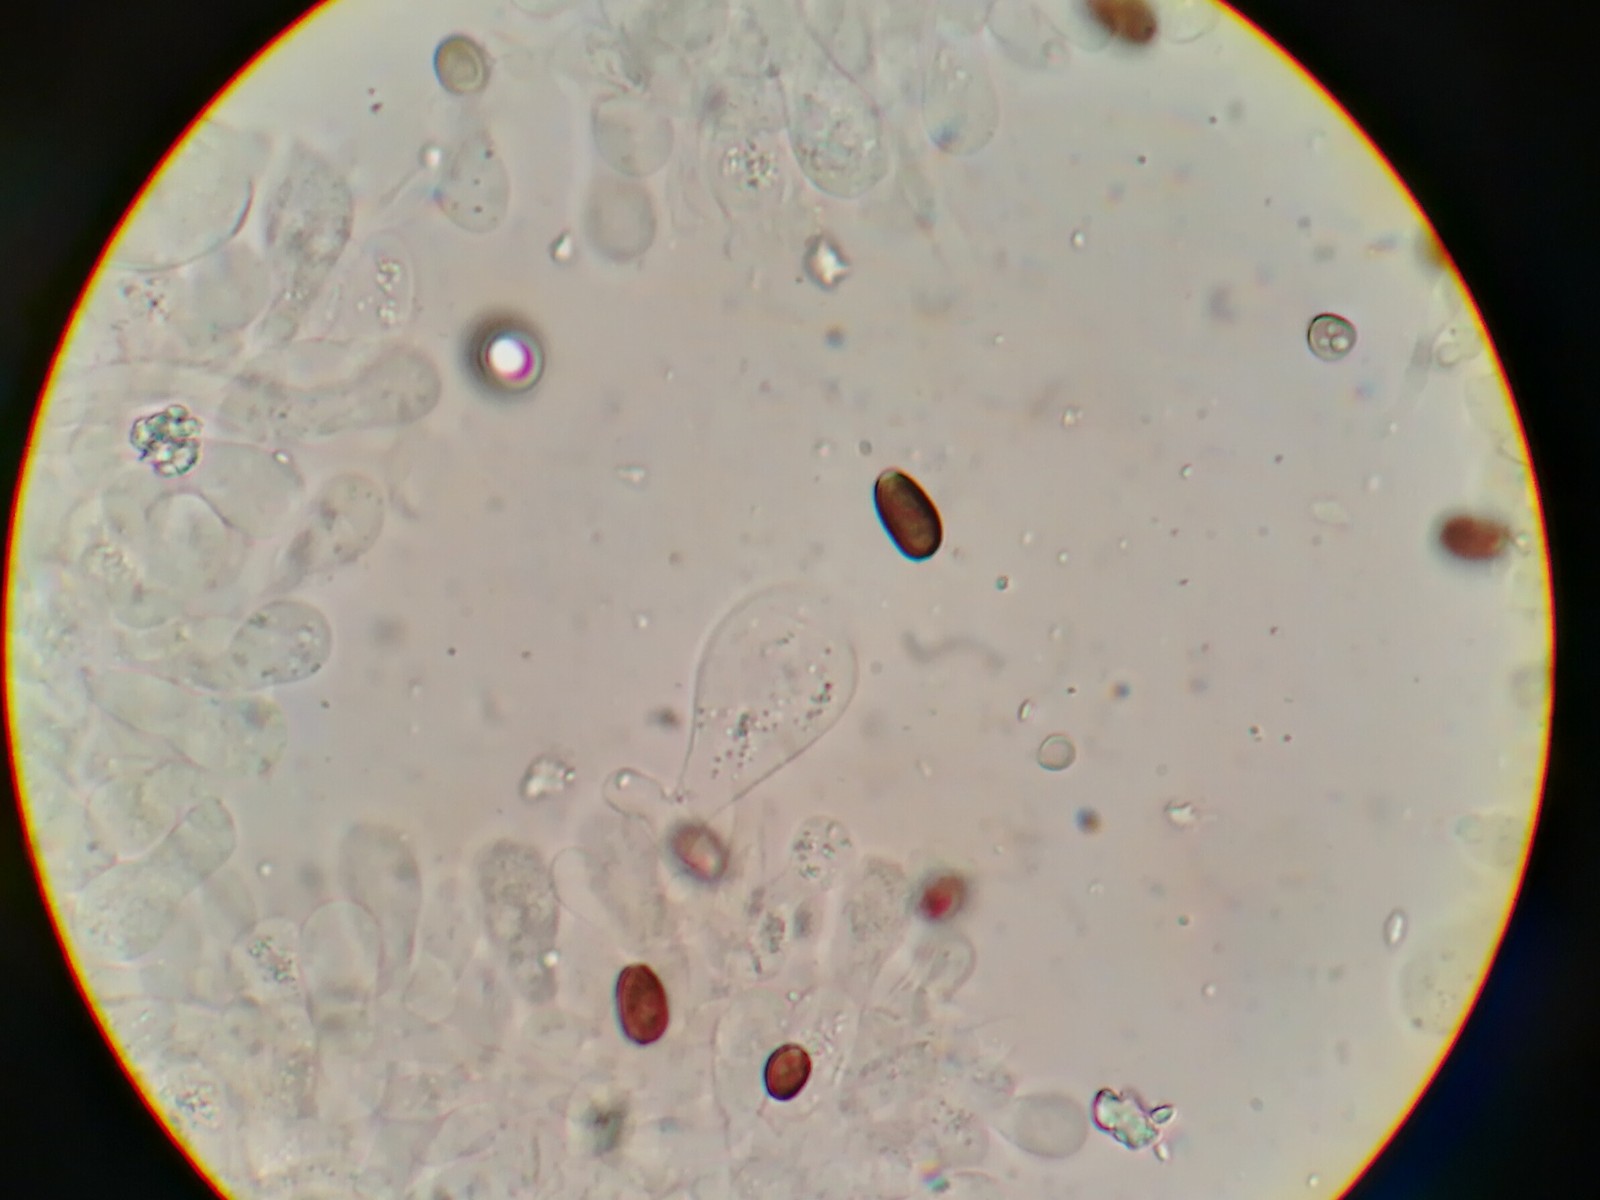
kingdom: Fungi
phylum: Basidiomycota
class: Agaricomycetes
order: Agaricales
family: Psathyrellaceae
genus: Psathyrella
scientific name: Psathyrella spadiceogrisea
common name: gråbrun mørkhat
